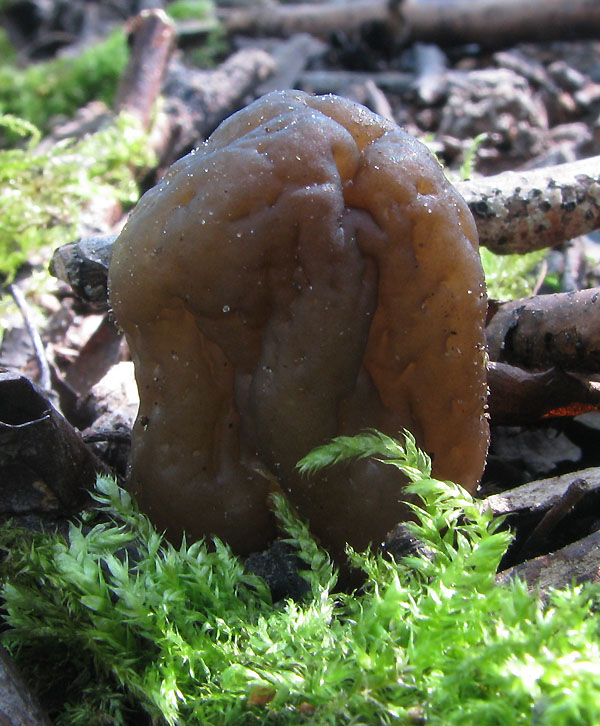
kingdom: Fungi
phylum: Ascomycota
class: Pezizomycetes
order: Pezizales
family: Morchellaceae
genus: Verpa
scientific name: Verpa conica
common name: glat klokkemorkel
